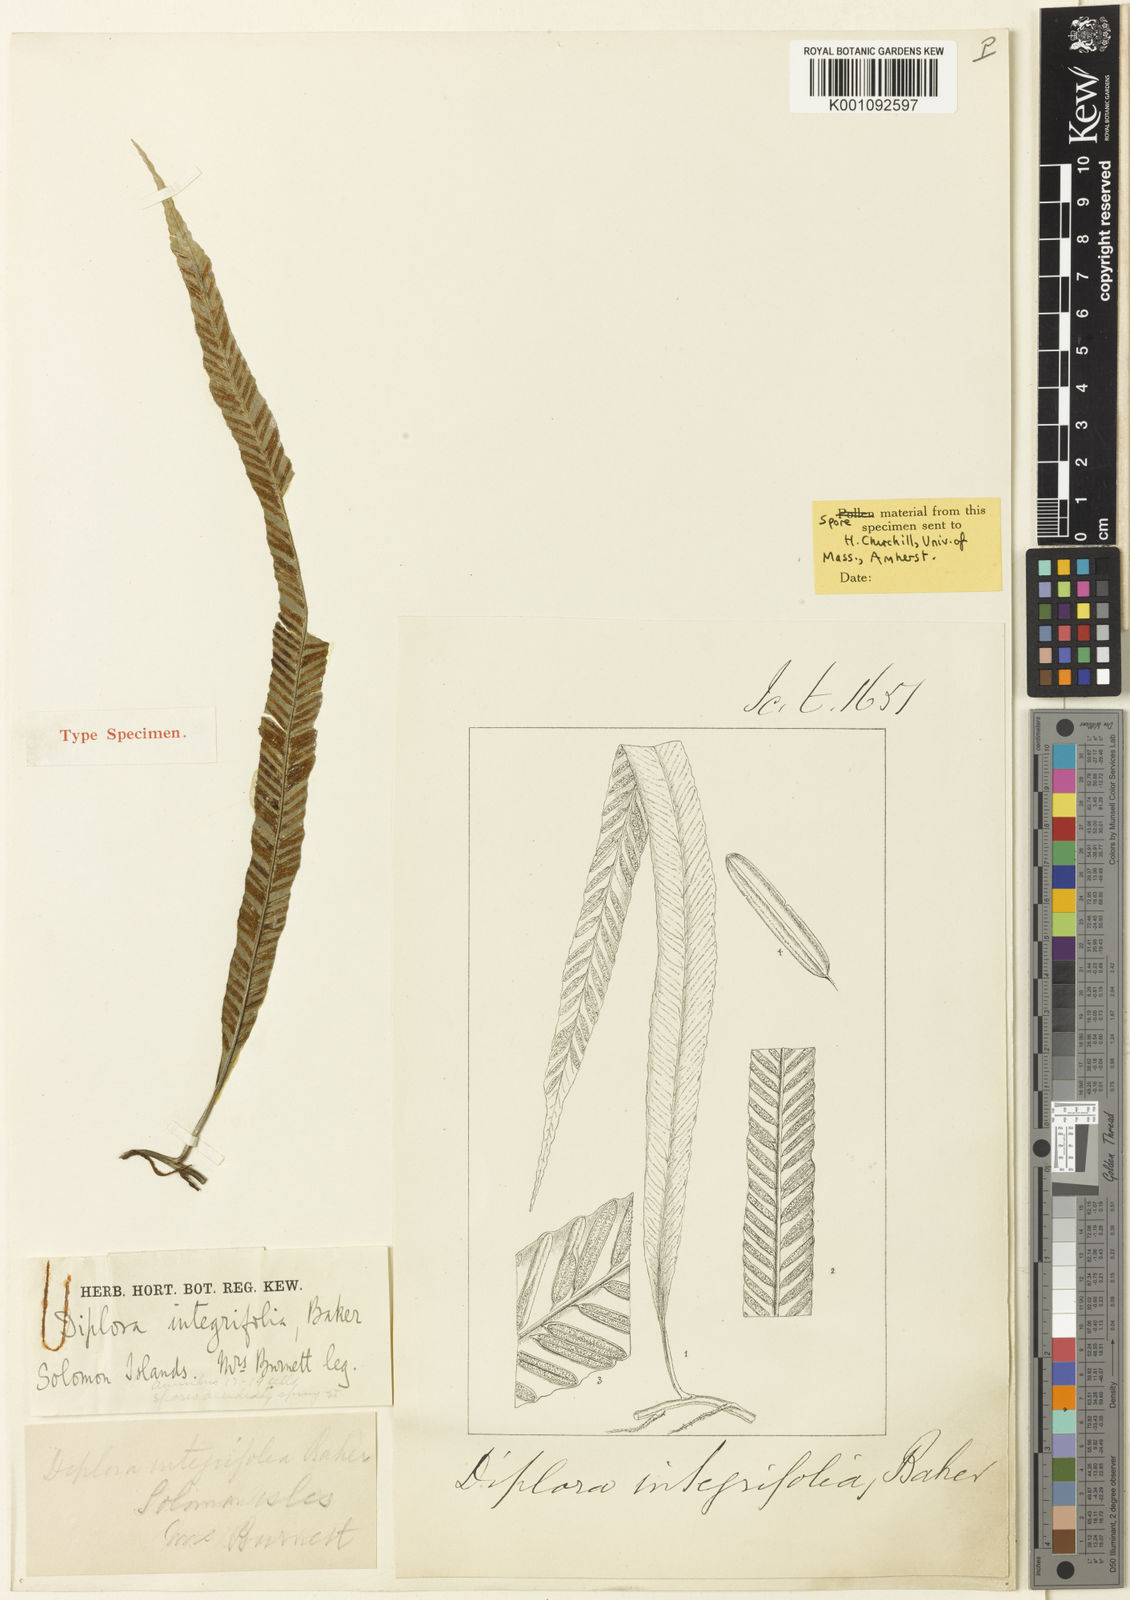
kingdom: Plantae
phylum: Tracheophyta
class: Polypodiopsida
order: Polypodiales
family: Aspleniaceae
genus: Asplenium
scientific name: Asplenium scolopendropsis
